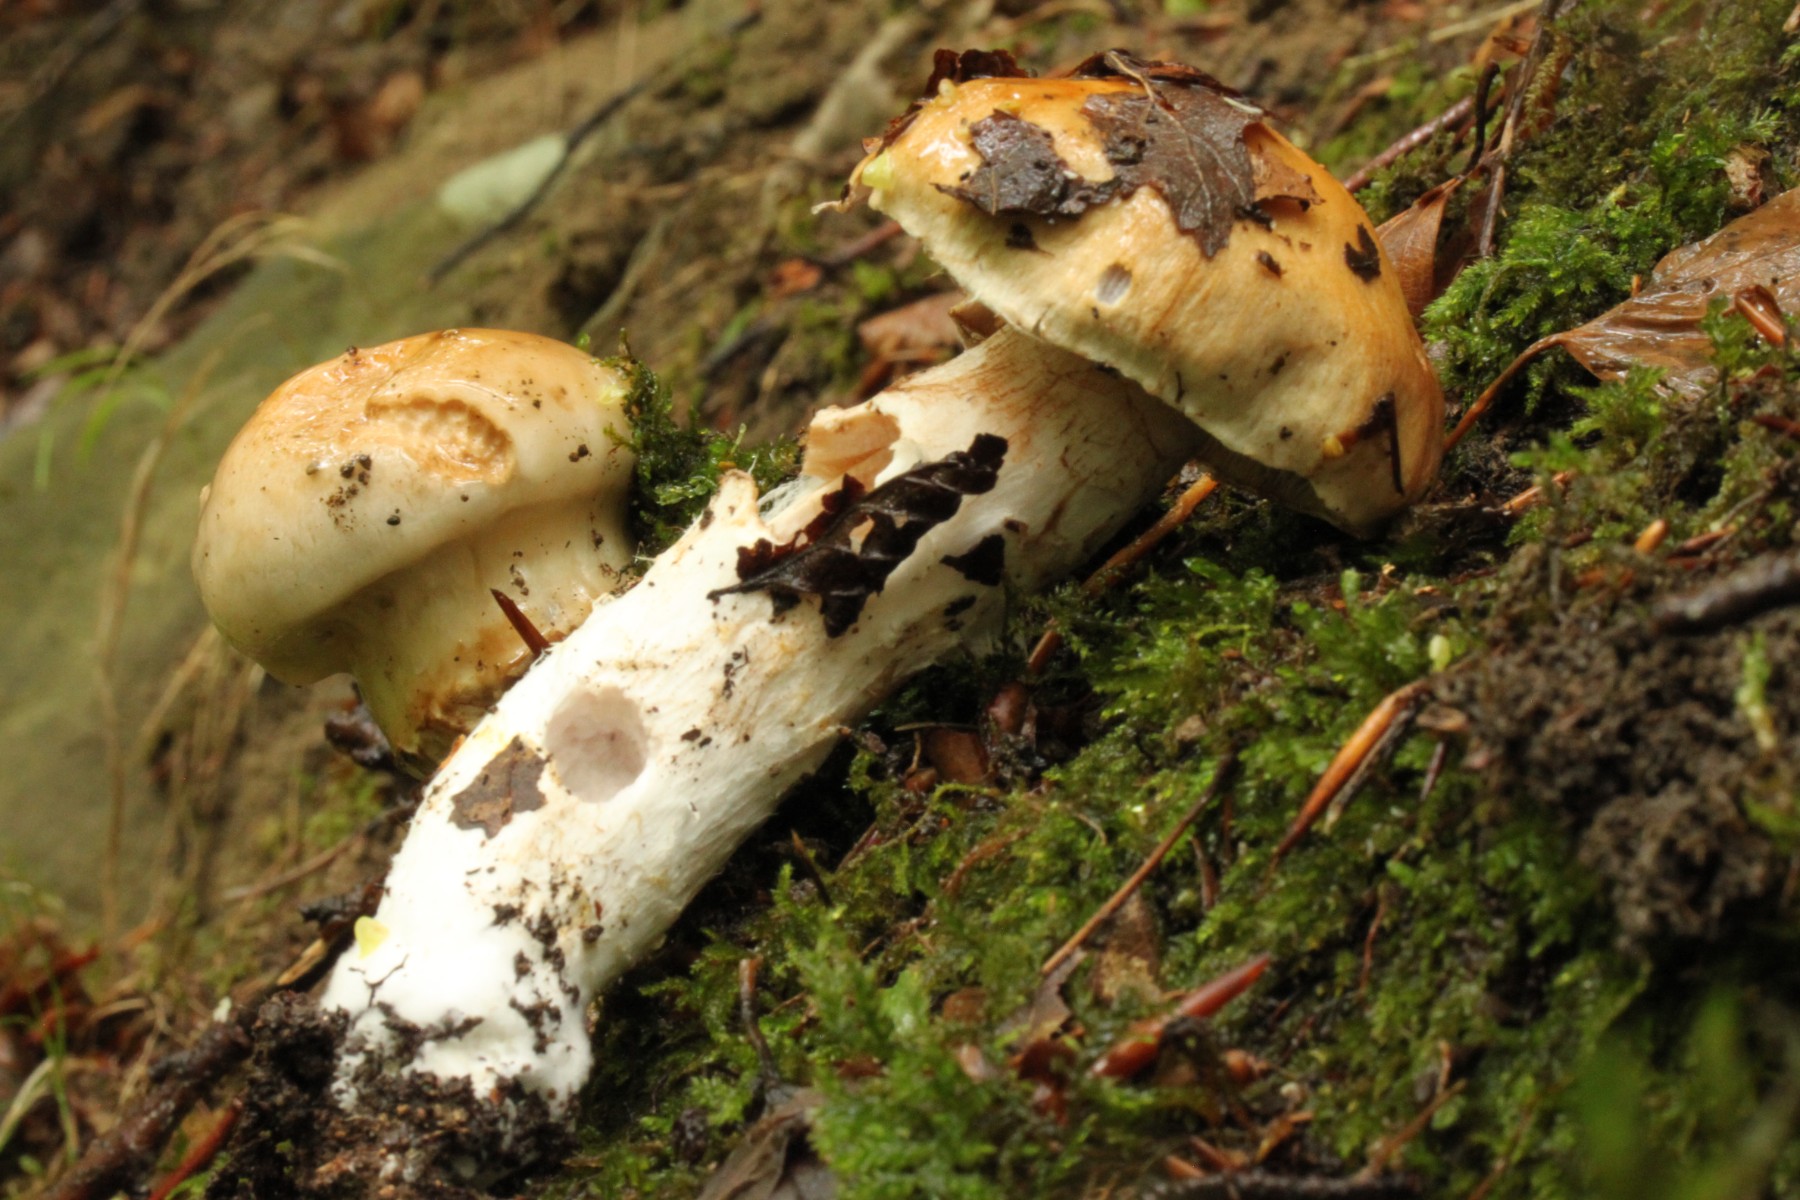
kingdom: Fungi
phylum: Basidiomycota
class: Agaricomycetes
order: Agaricales
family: Cortinariaceae
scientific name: Cortinariaceae
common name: slørhatfamilien
